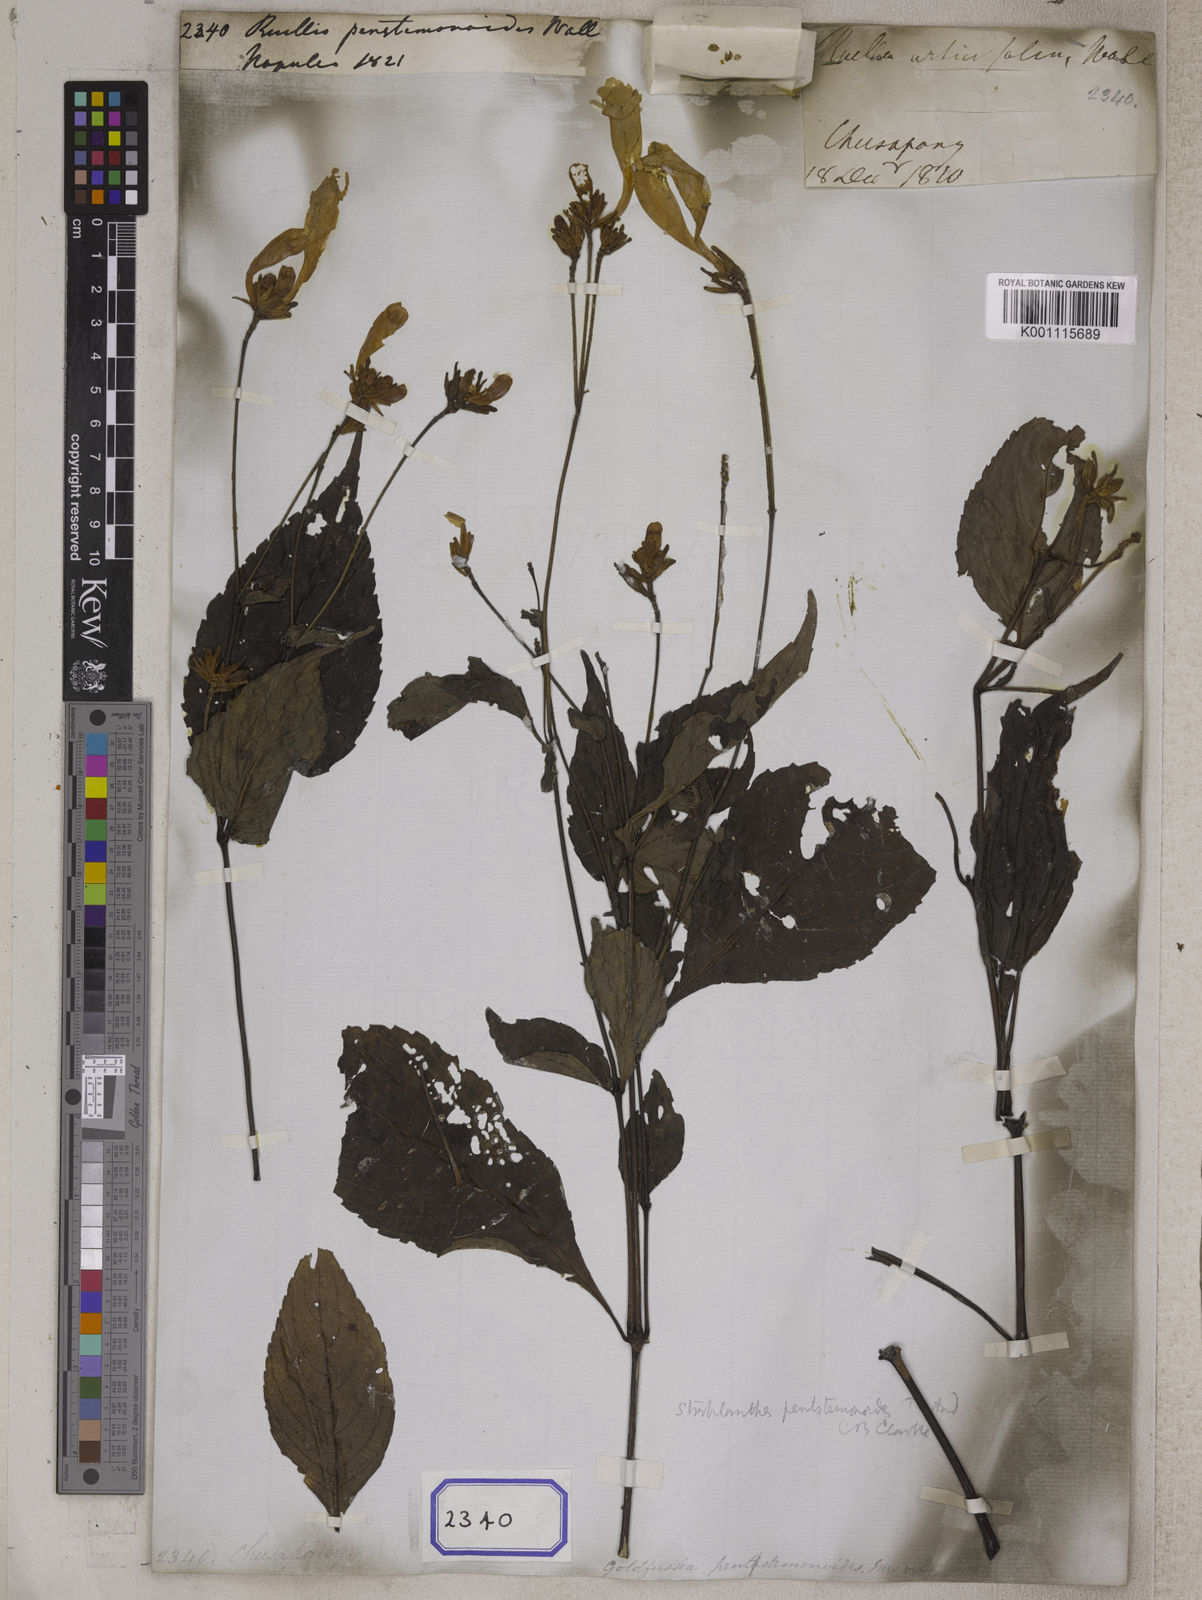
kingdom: Plantae
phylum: Tracheophyta
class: Magnoliopsida
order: Lamiales
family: Acanthaceae
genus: Strobilanthes
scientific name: Strobilanthes pentastemonoides
